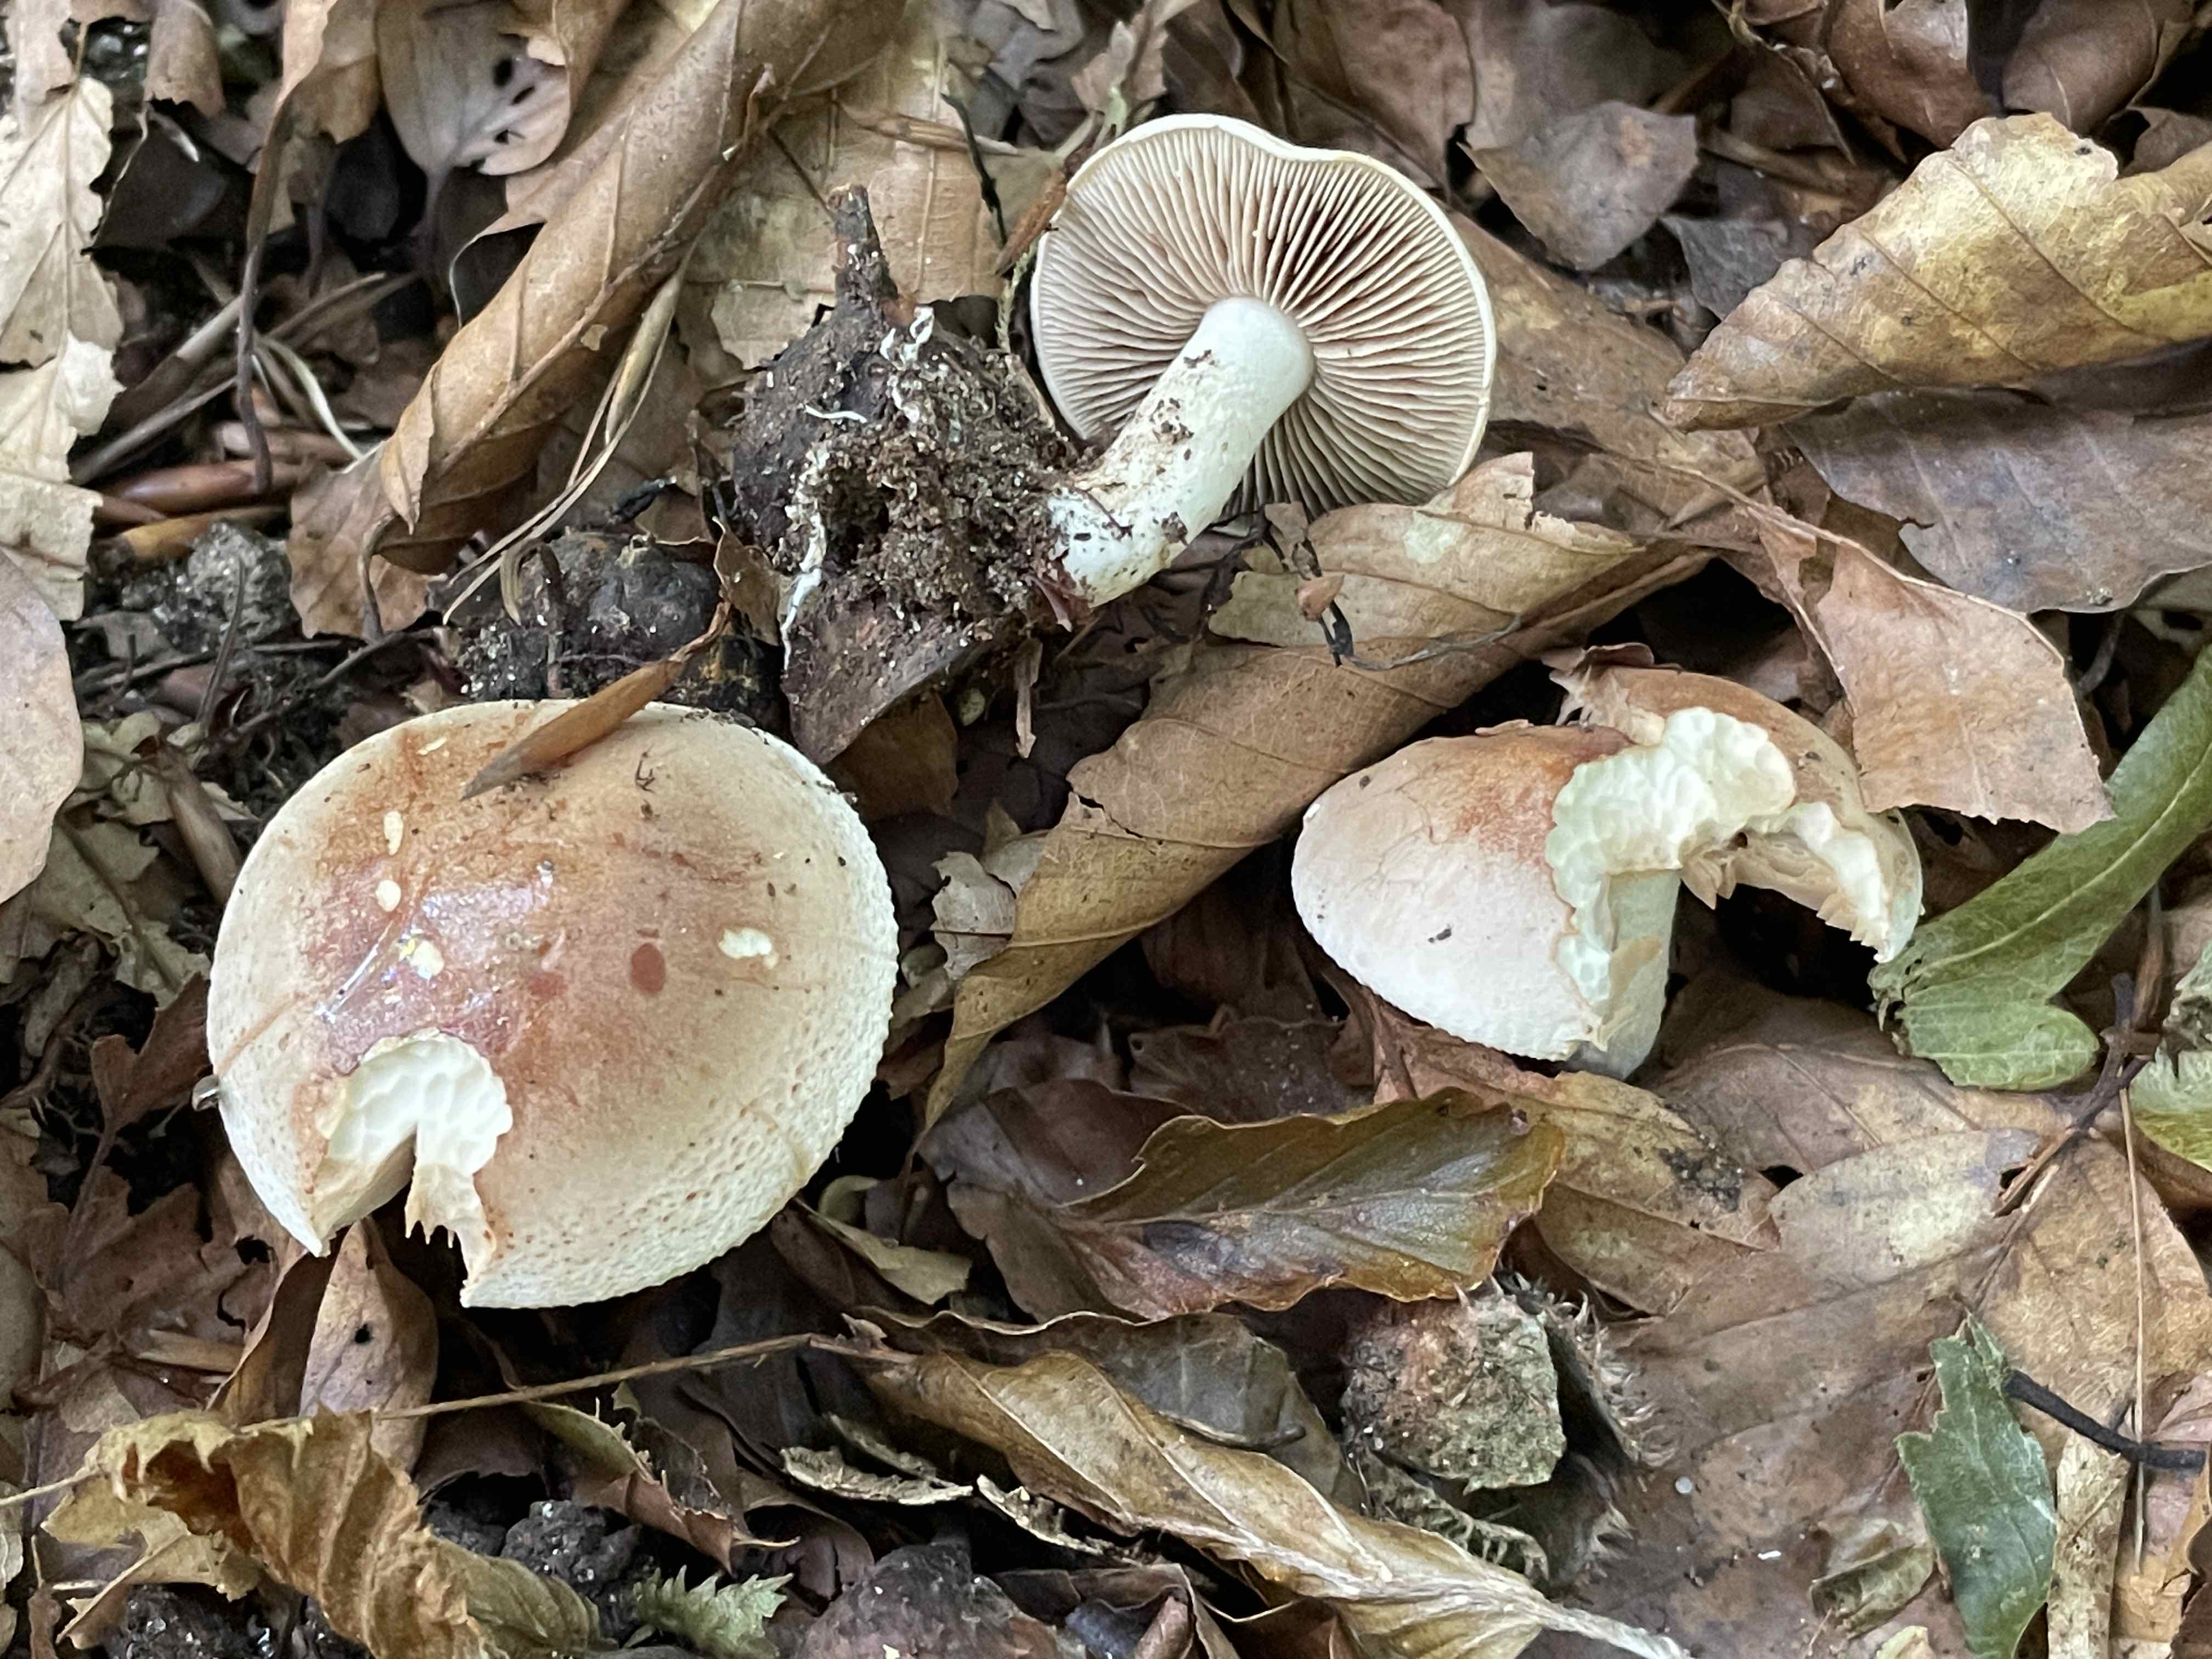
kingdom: Fungi
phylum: Basidiomycota
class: Agaricomycetes
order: Agaricales
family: Hymenogastraceae
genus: Hebeloma
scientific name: Hebeloma
